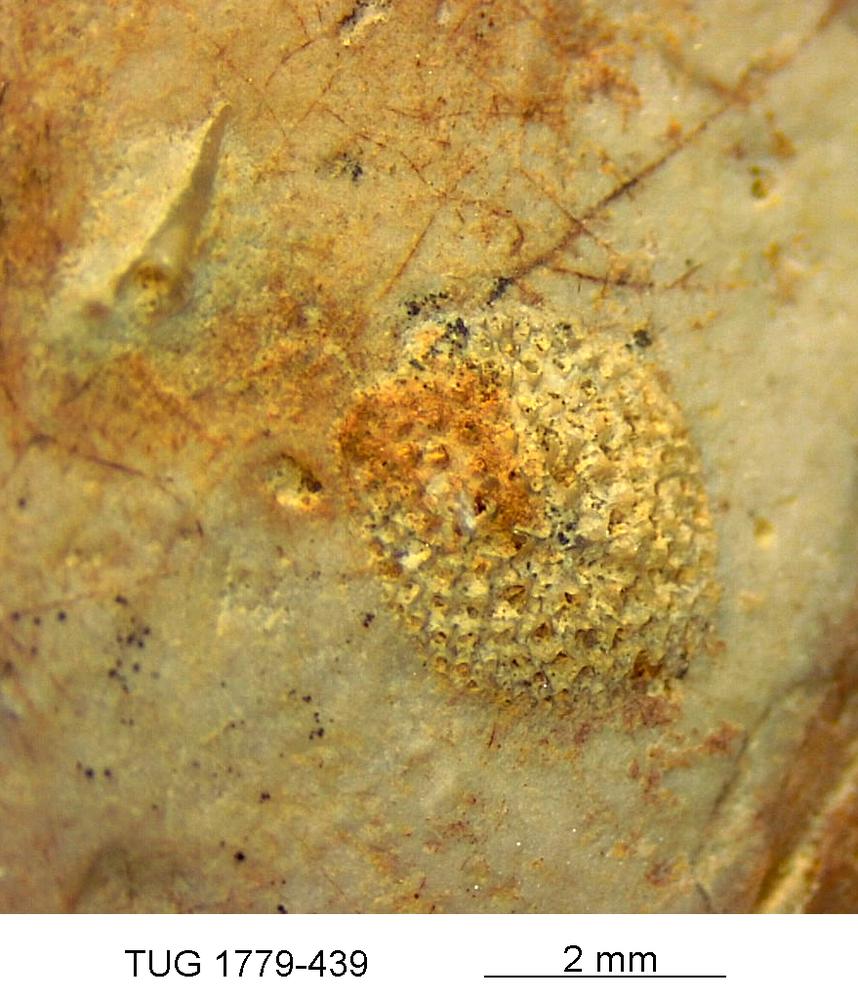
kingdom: Animalia
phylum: Bryozoa
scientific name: Bryozoa
